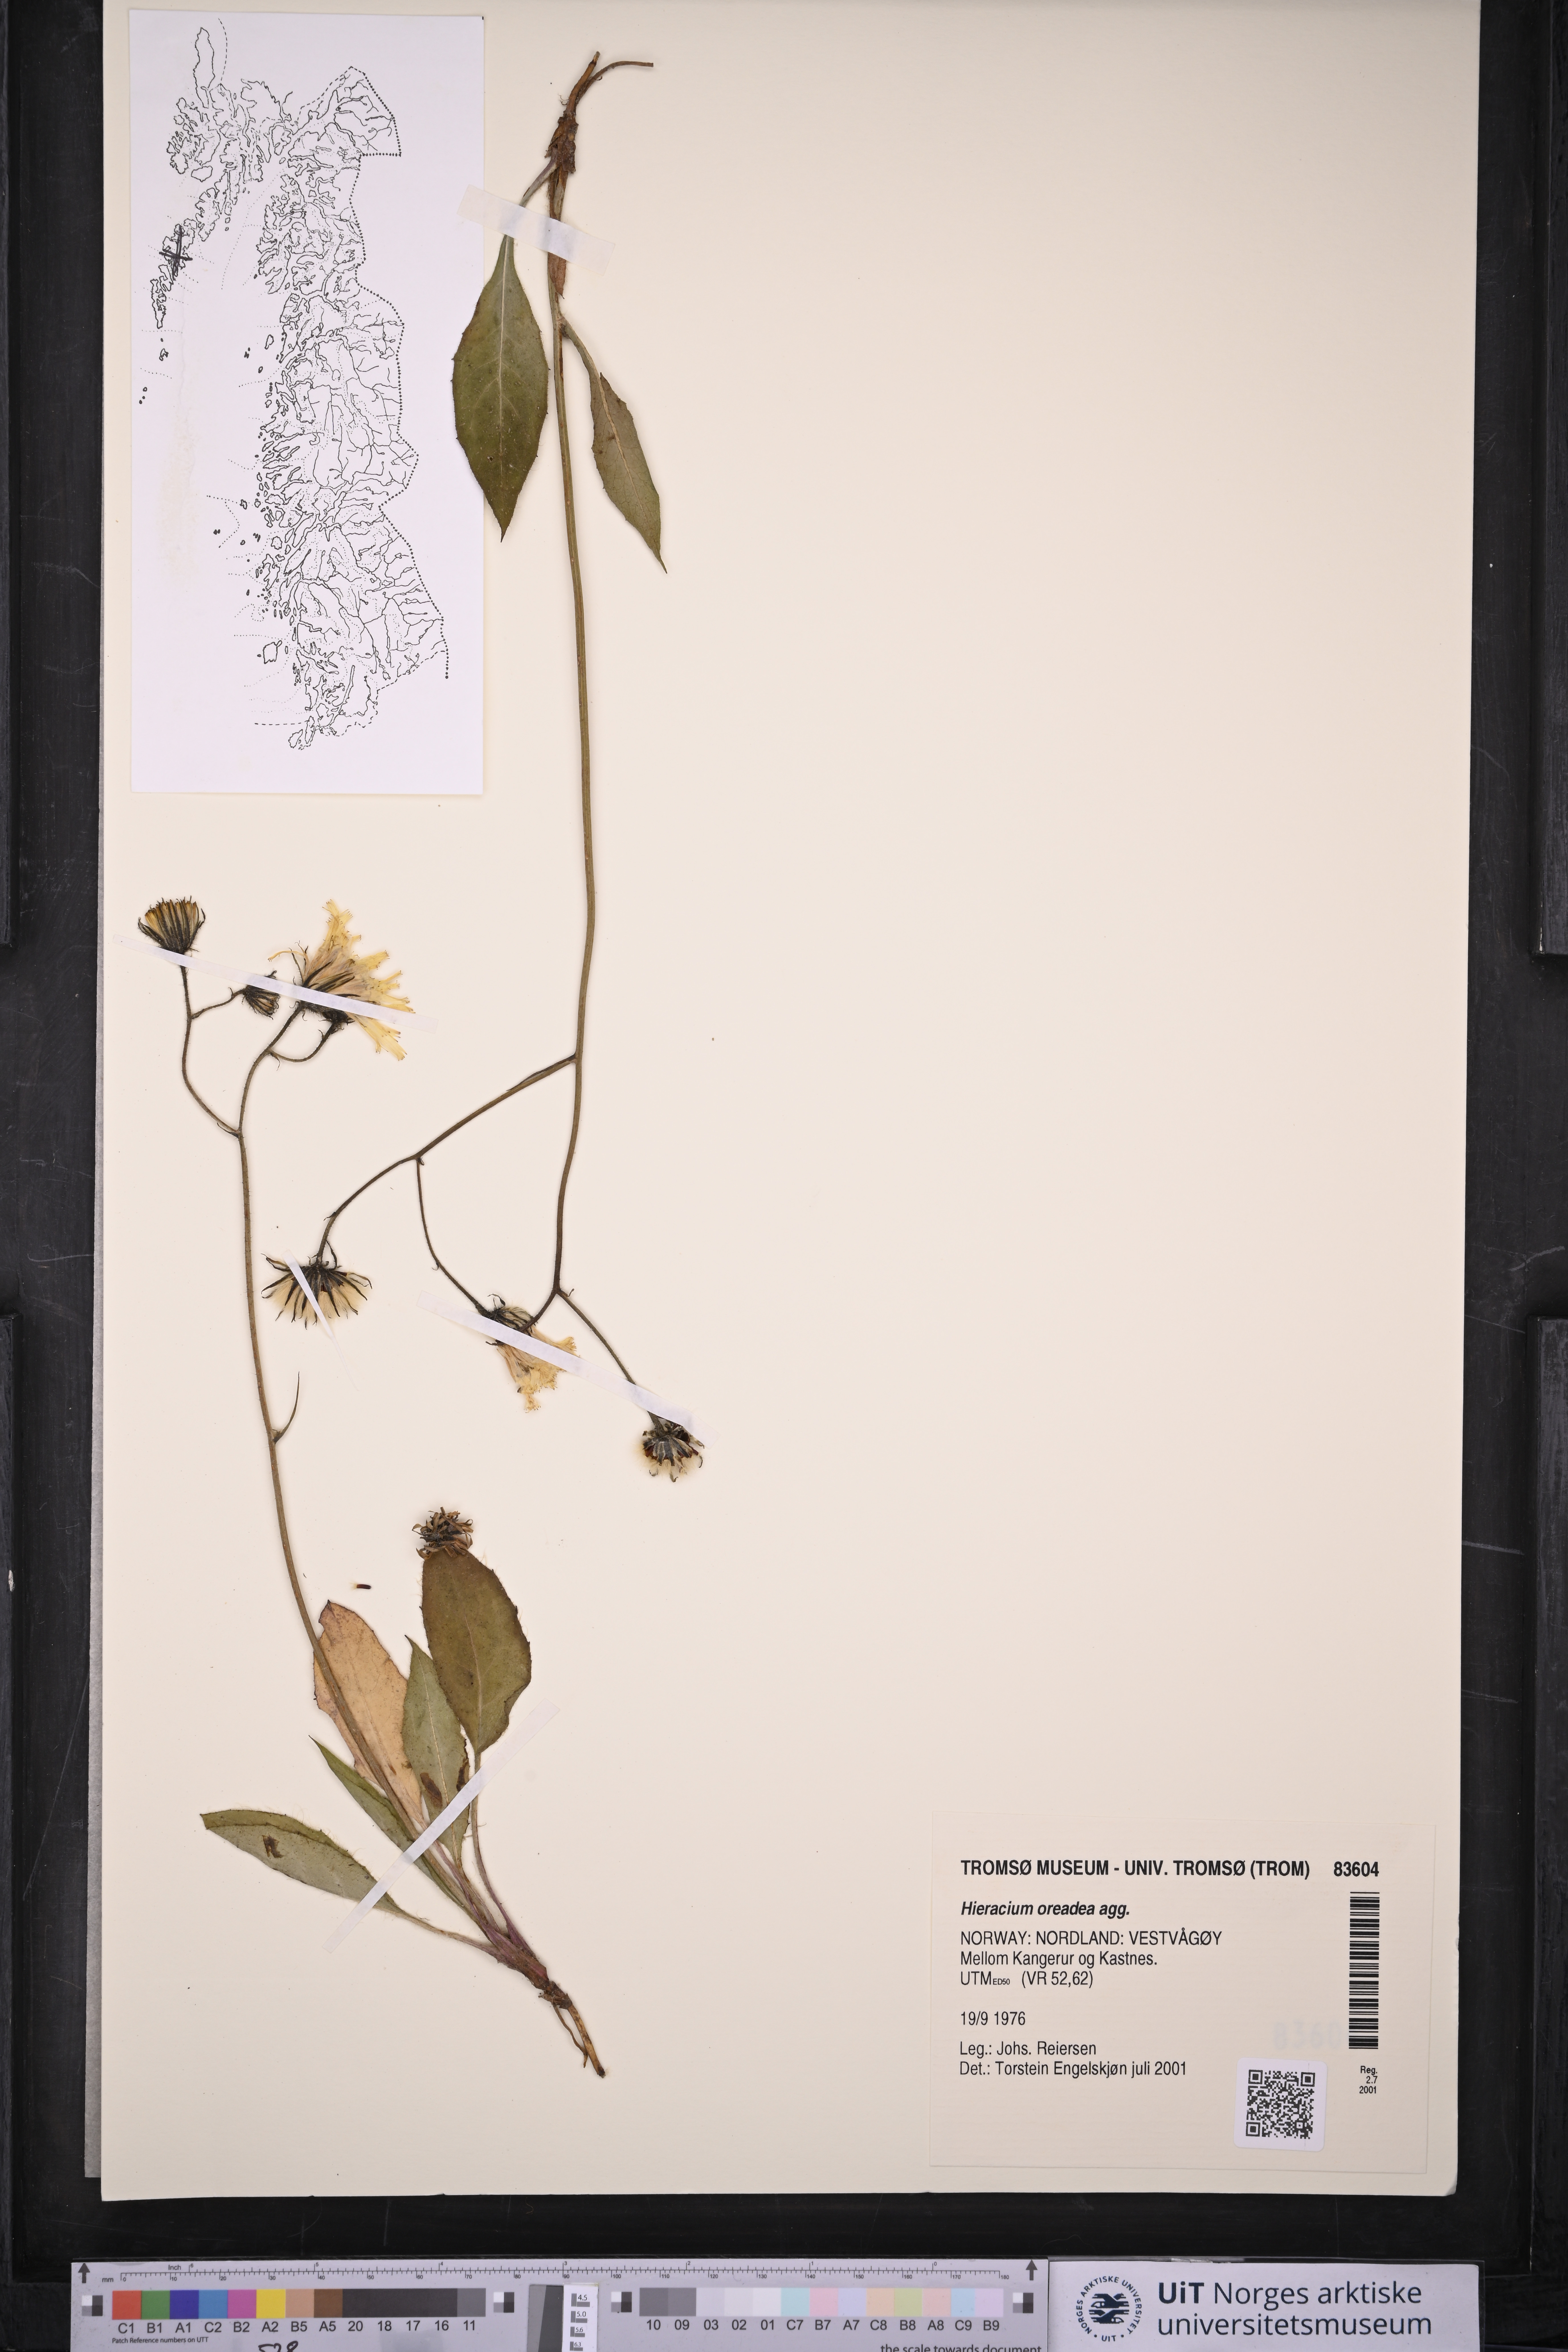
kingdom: Plantae
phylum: Tracheophyta
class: Magnoliopsida
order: Asterales
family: Asteraceae
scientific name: Asteraceae
